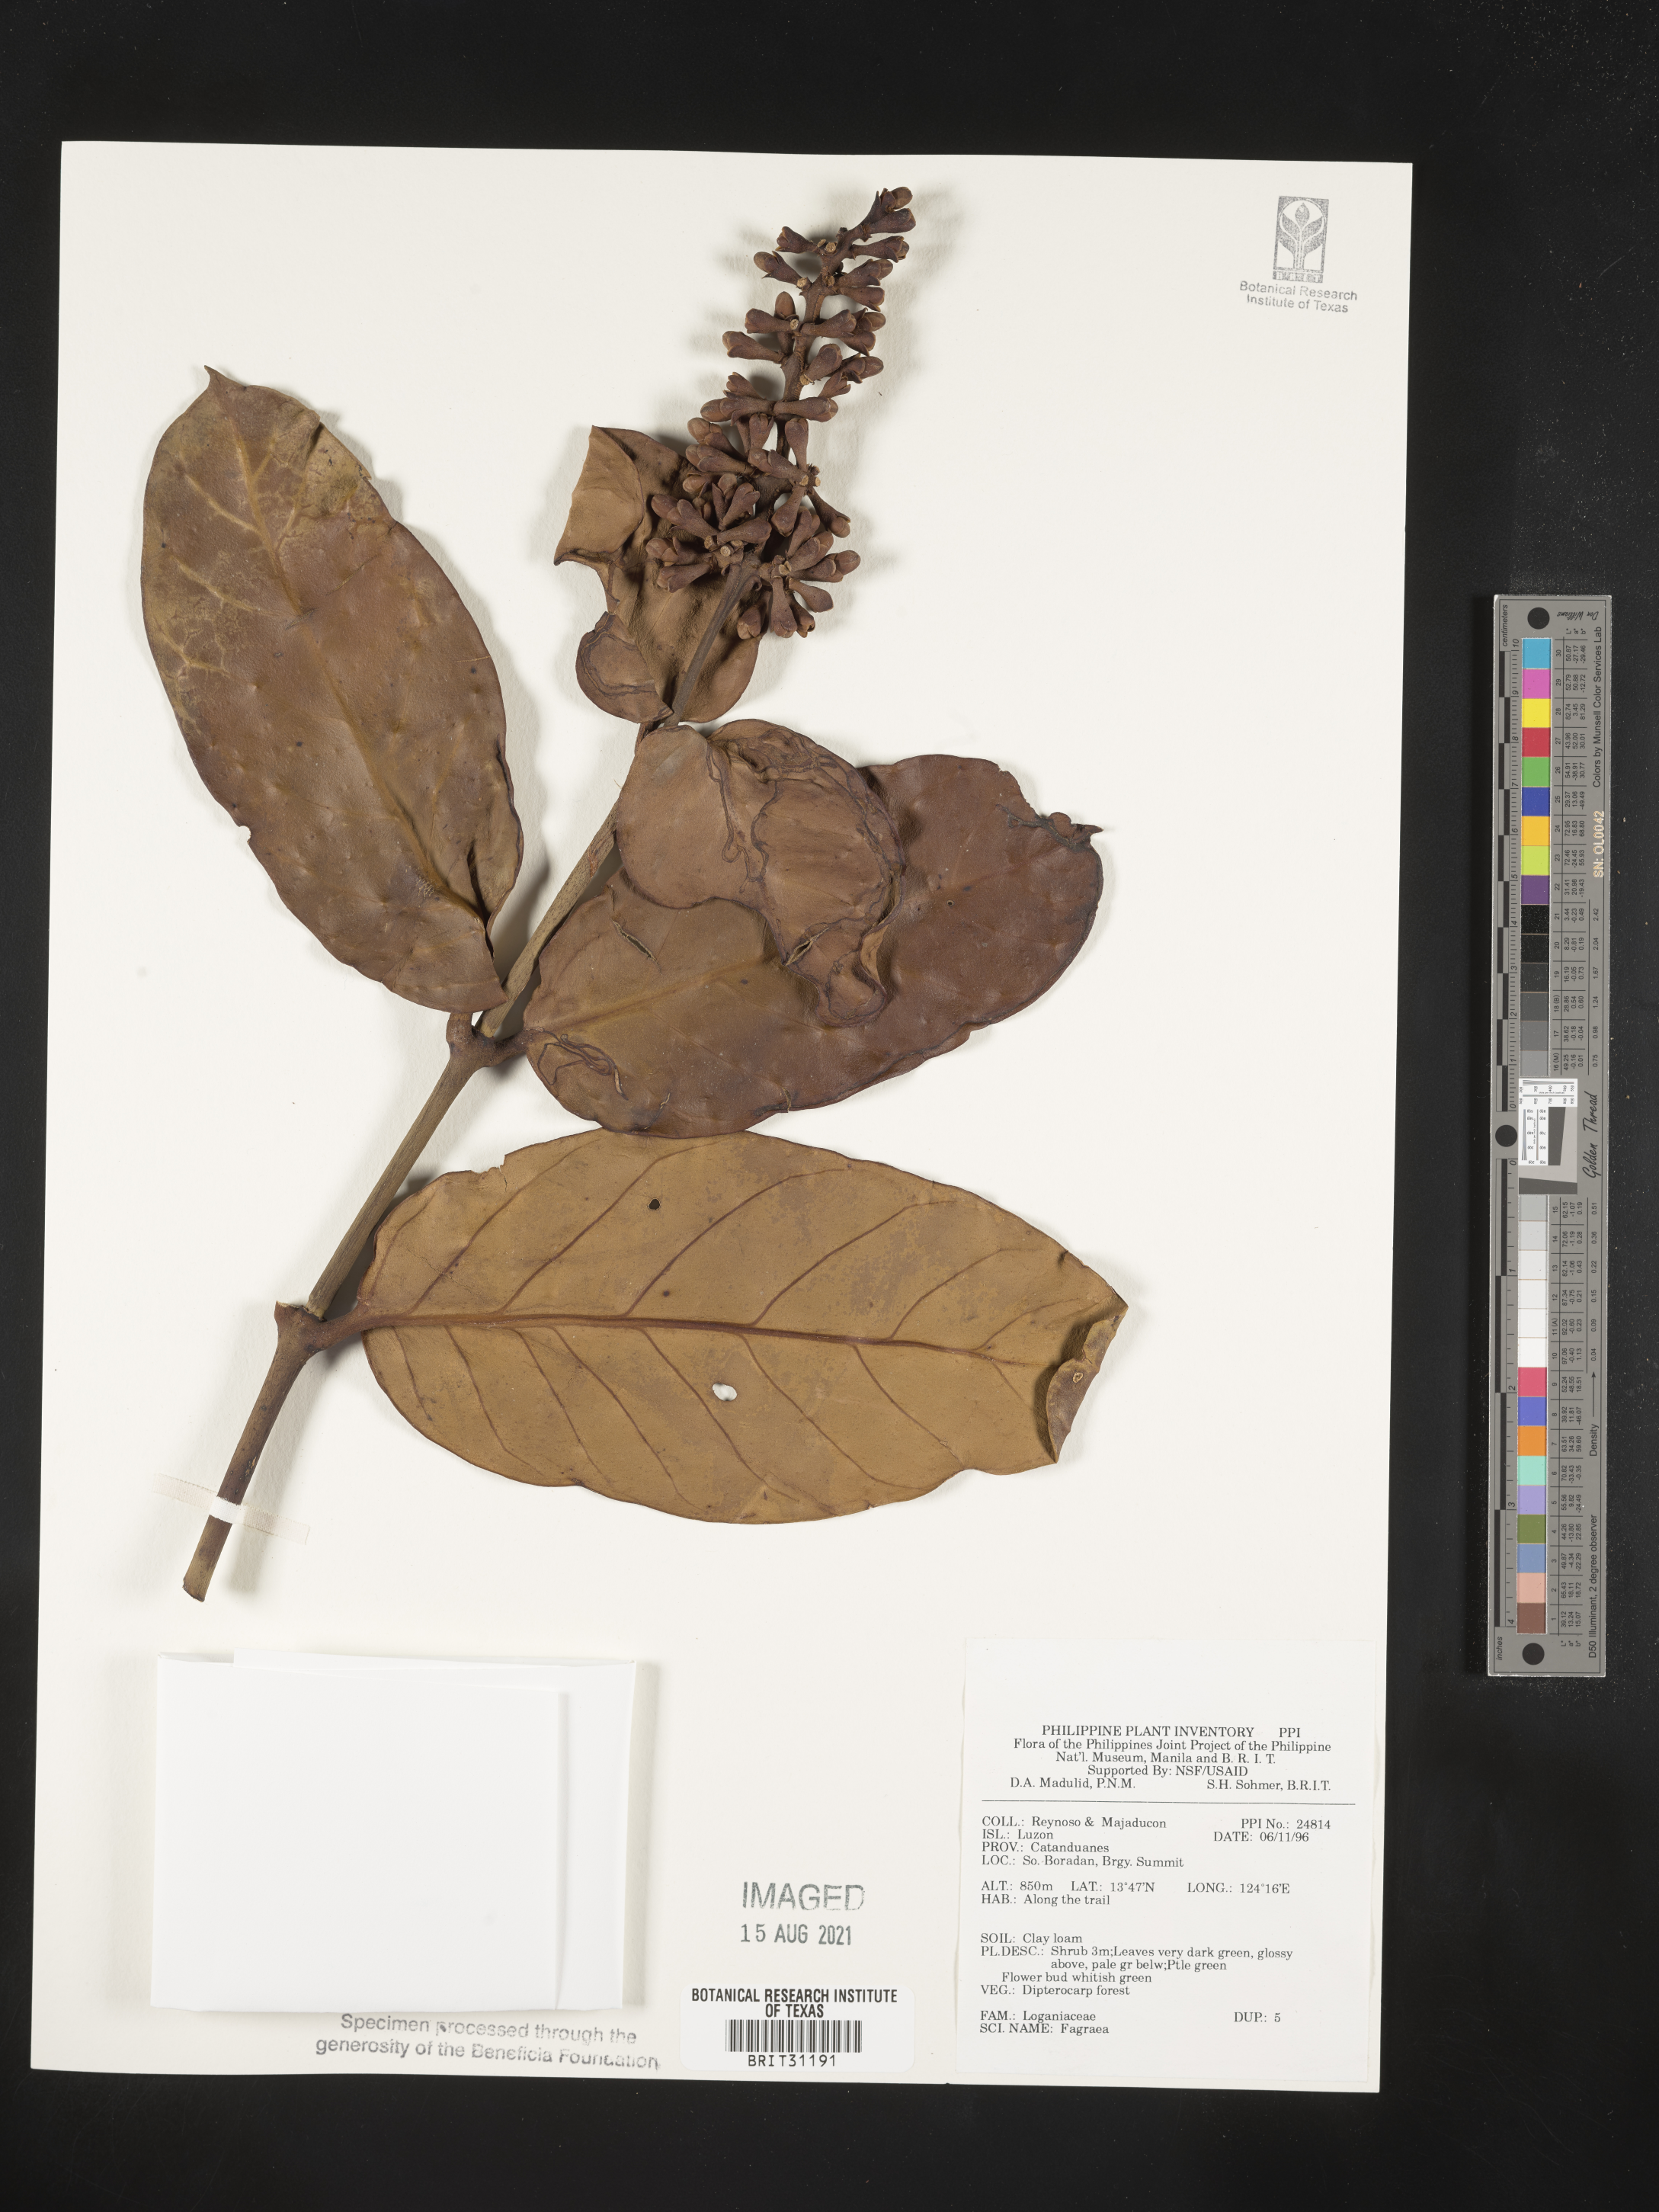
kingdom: Plantae
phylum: Tracheophyta
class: Magnoliopsida
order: Gentianales
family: Gentianaceae
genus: Fagraea
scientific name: Fagraea
